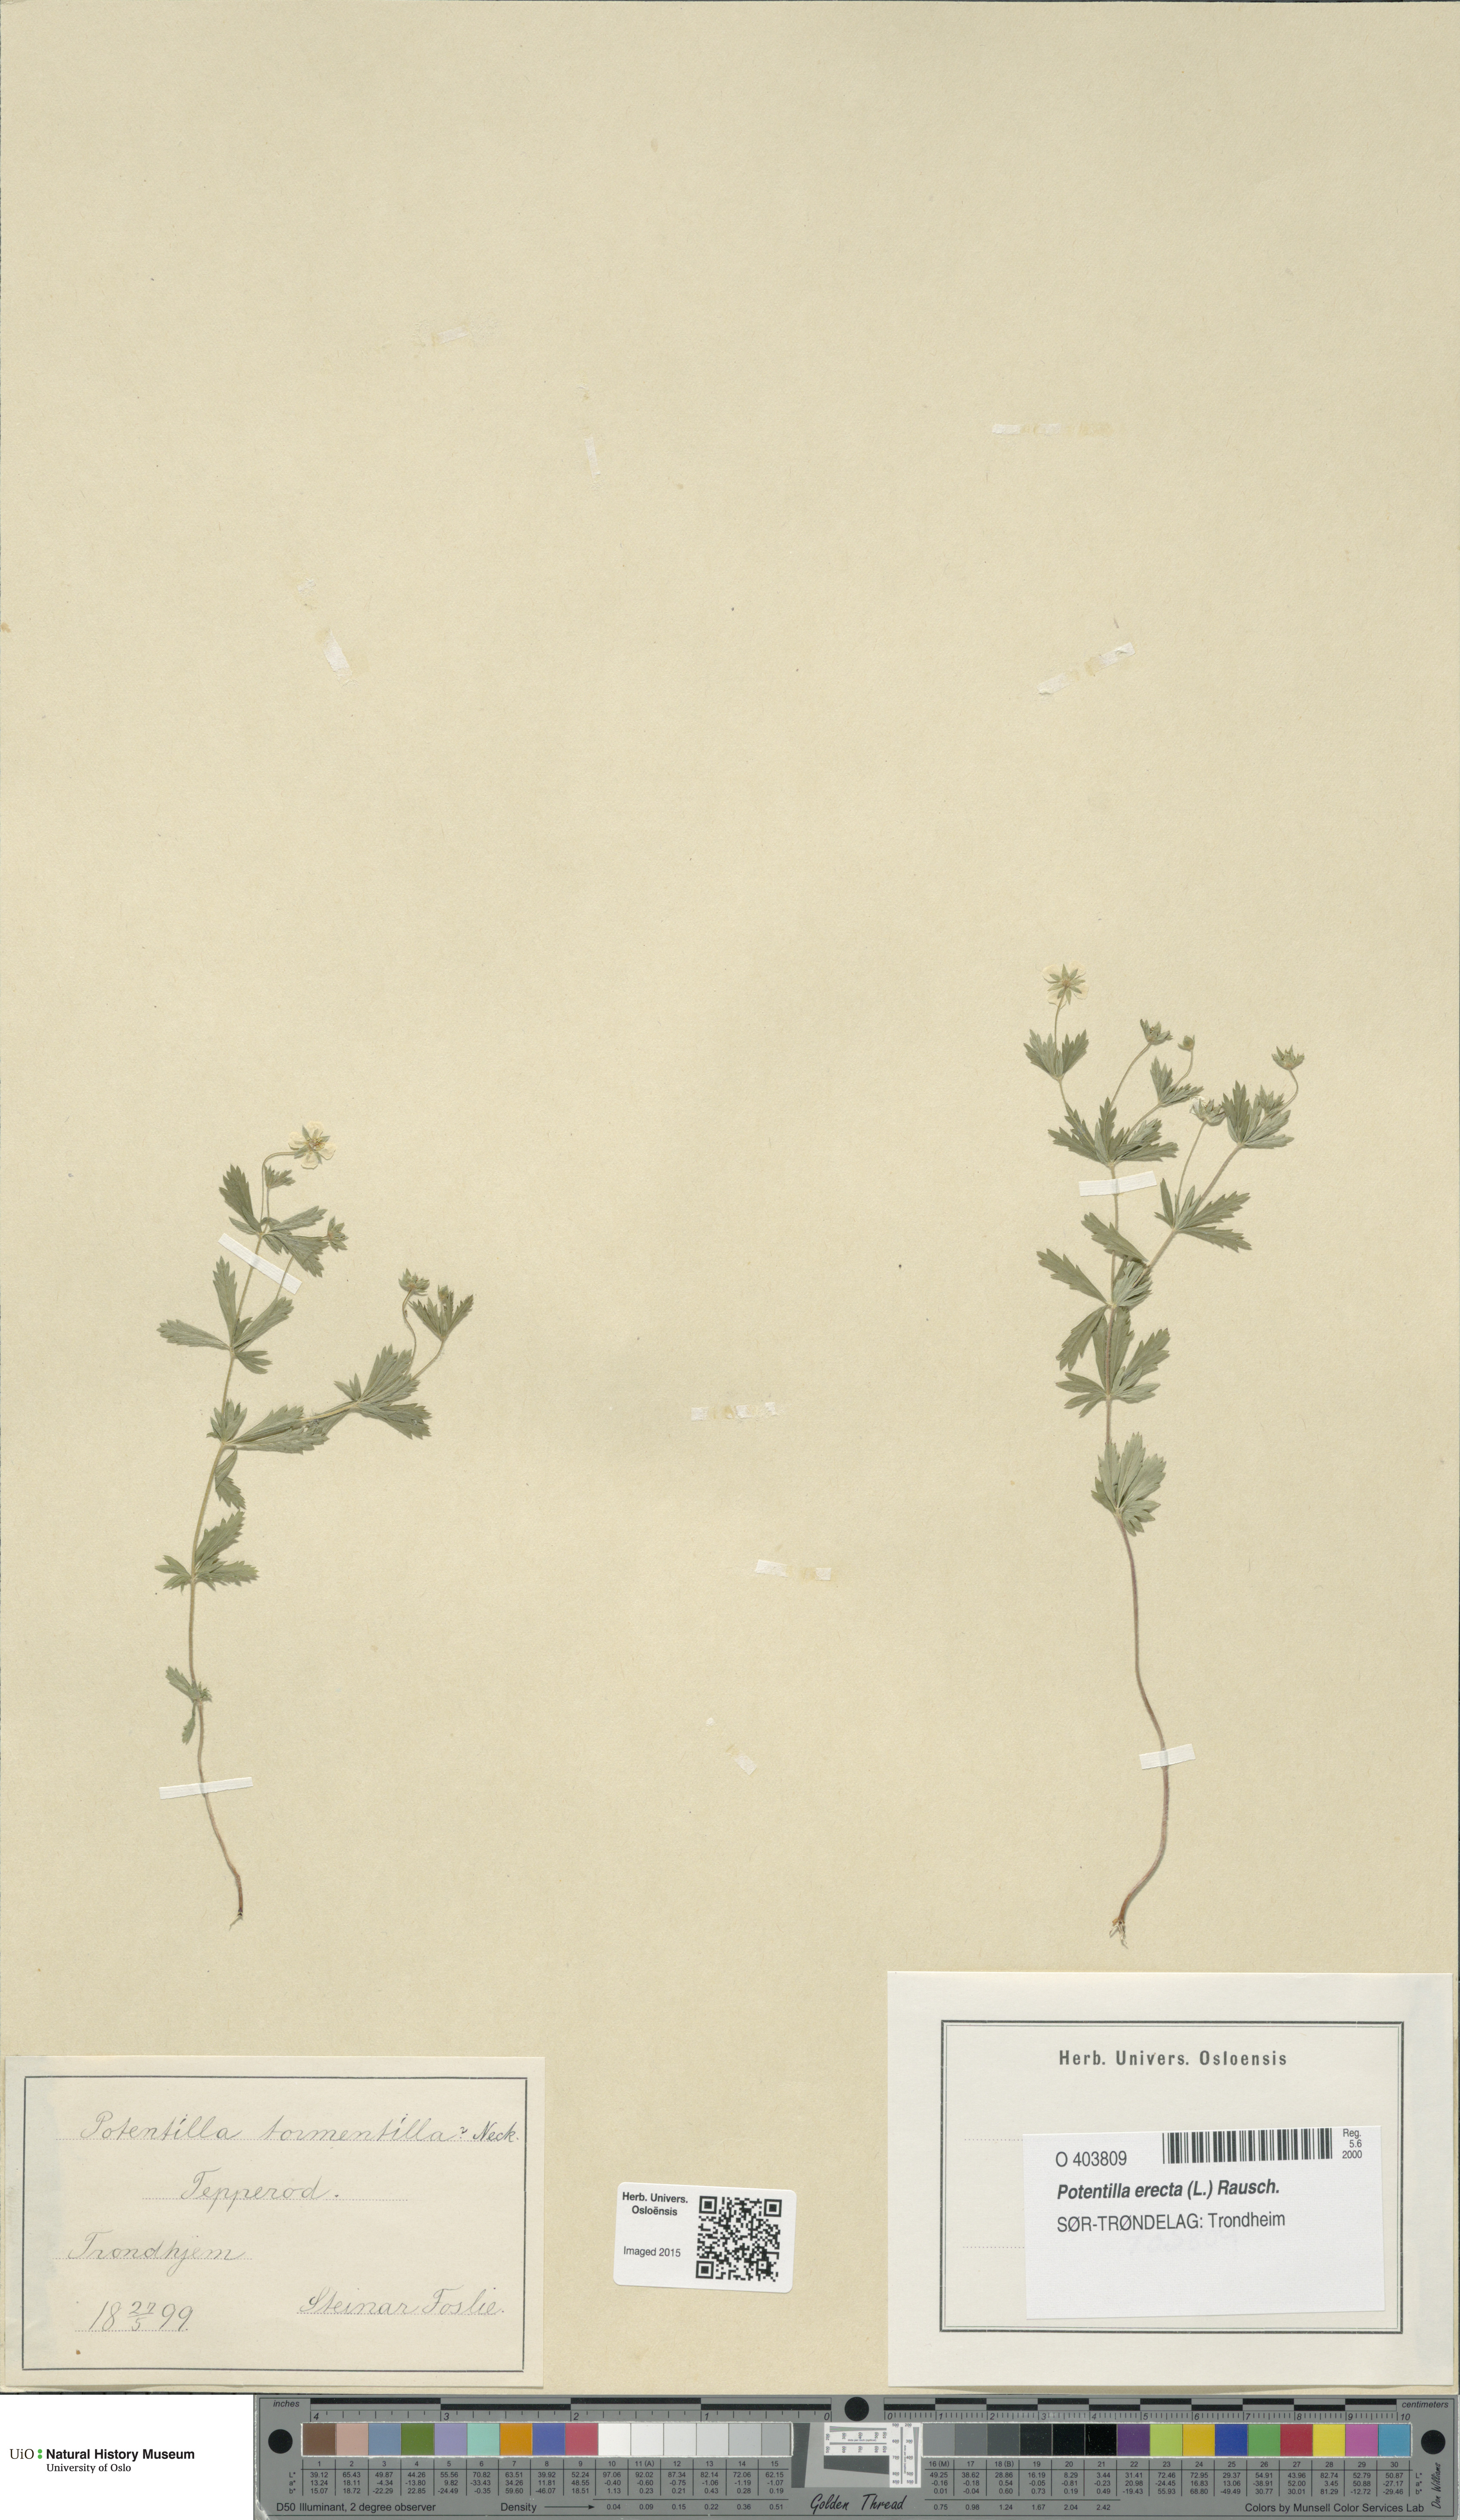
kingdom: Plantae
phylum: Tracheophyta
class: Magnoliopsida
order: Rosales
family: Rosaceae
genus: Potentilla
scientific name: Potentilla erecta
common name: Tormentil
